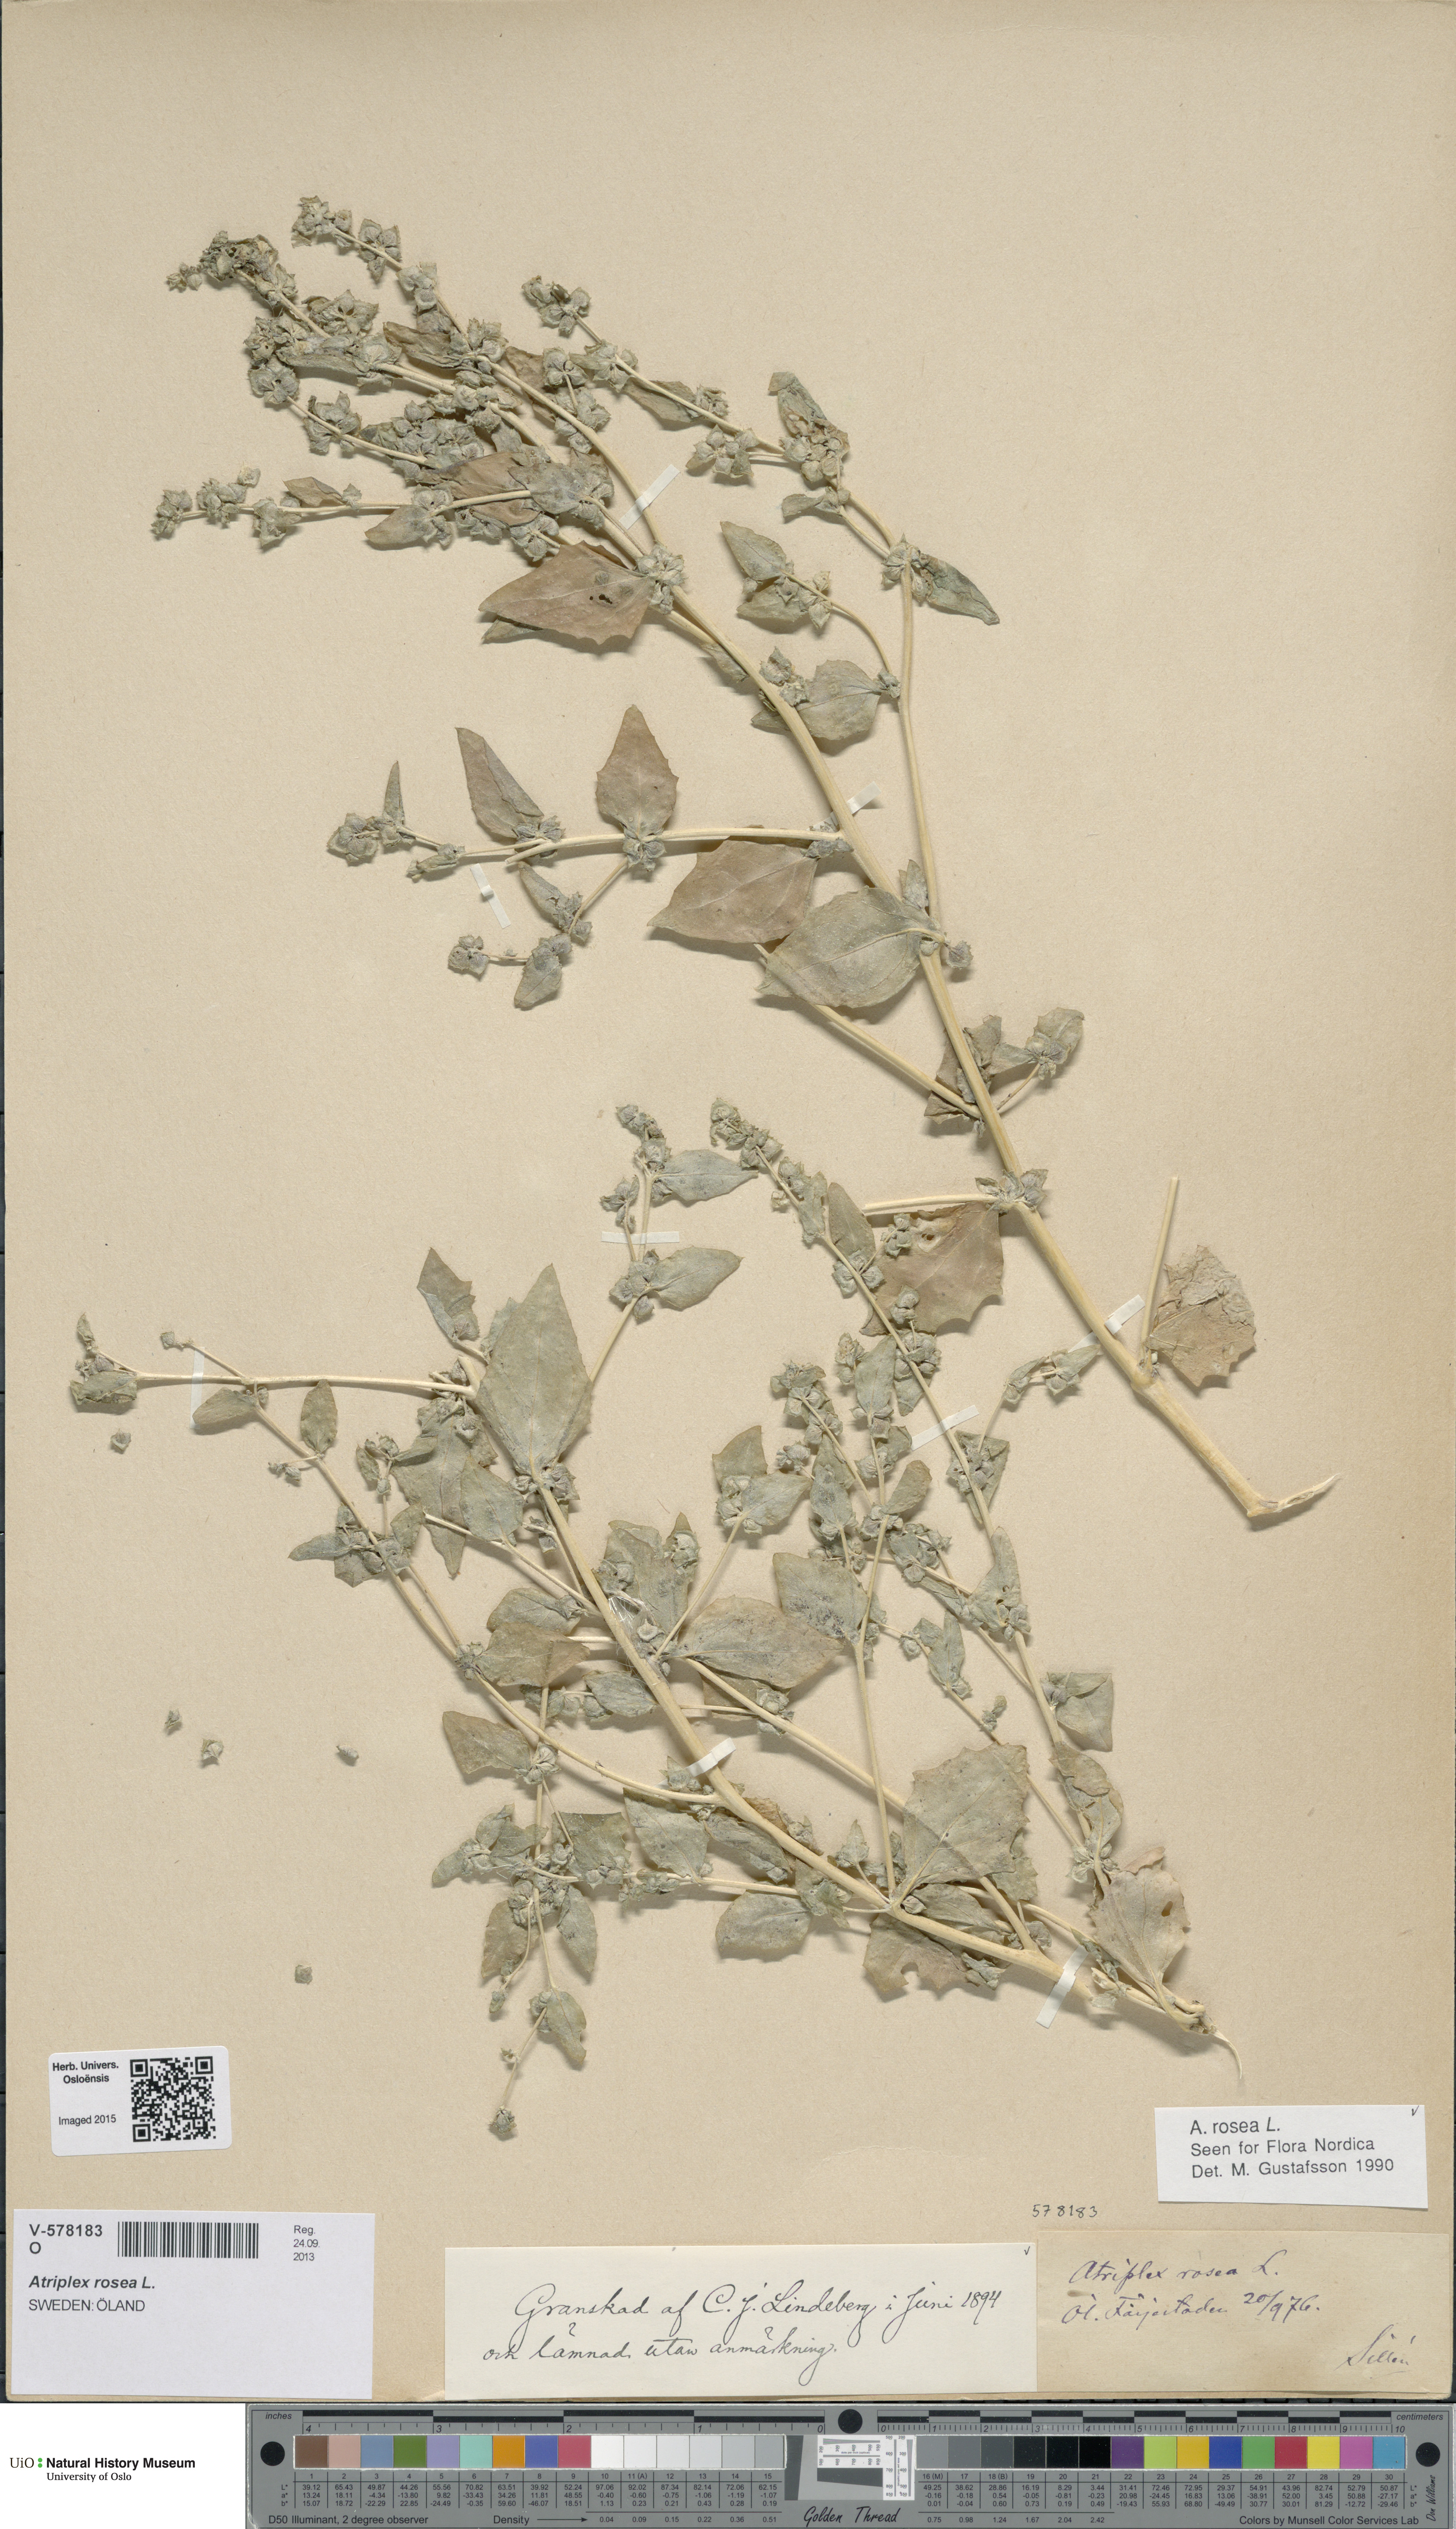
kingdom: Plantae
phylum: Tracheophyta
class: Magnoliopsida
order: Caryophyllales
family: Amaranthaceae
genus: Atriplex
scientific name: Atriplex rosea
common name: Tumbling saltweed
